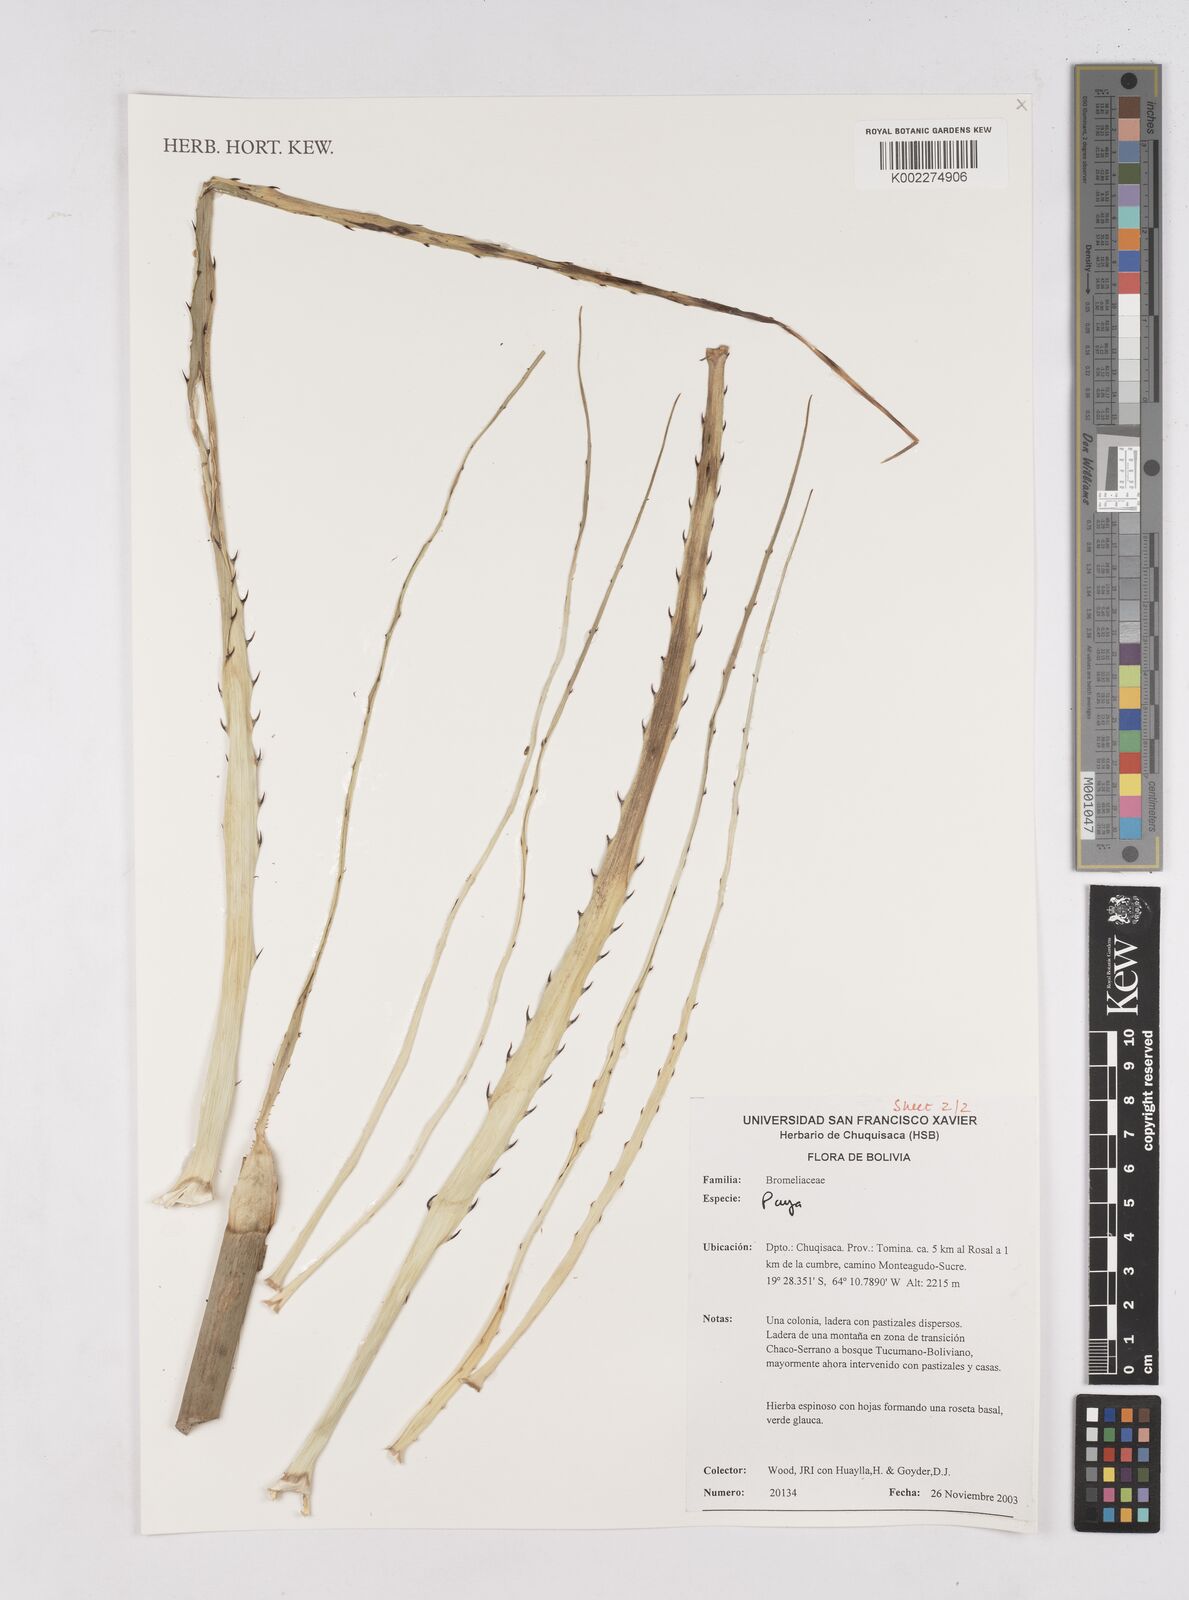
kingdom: Plantae
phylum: Tracheophyta
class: Liliopsida
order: Poales
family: Bromeliaceae
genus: Puya
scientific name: Puya
